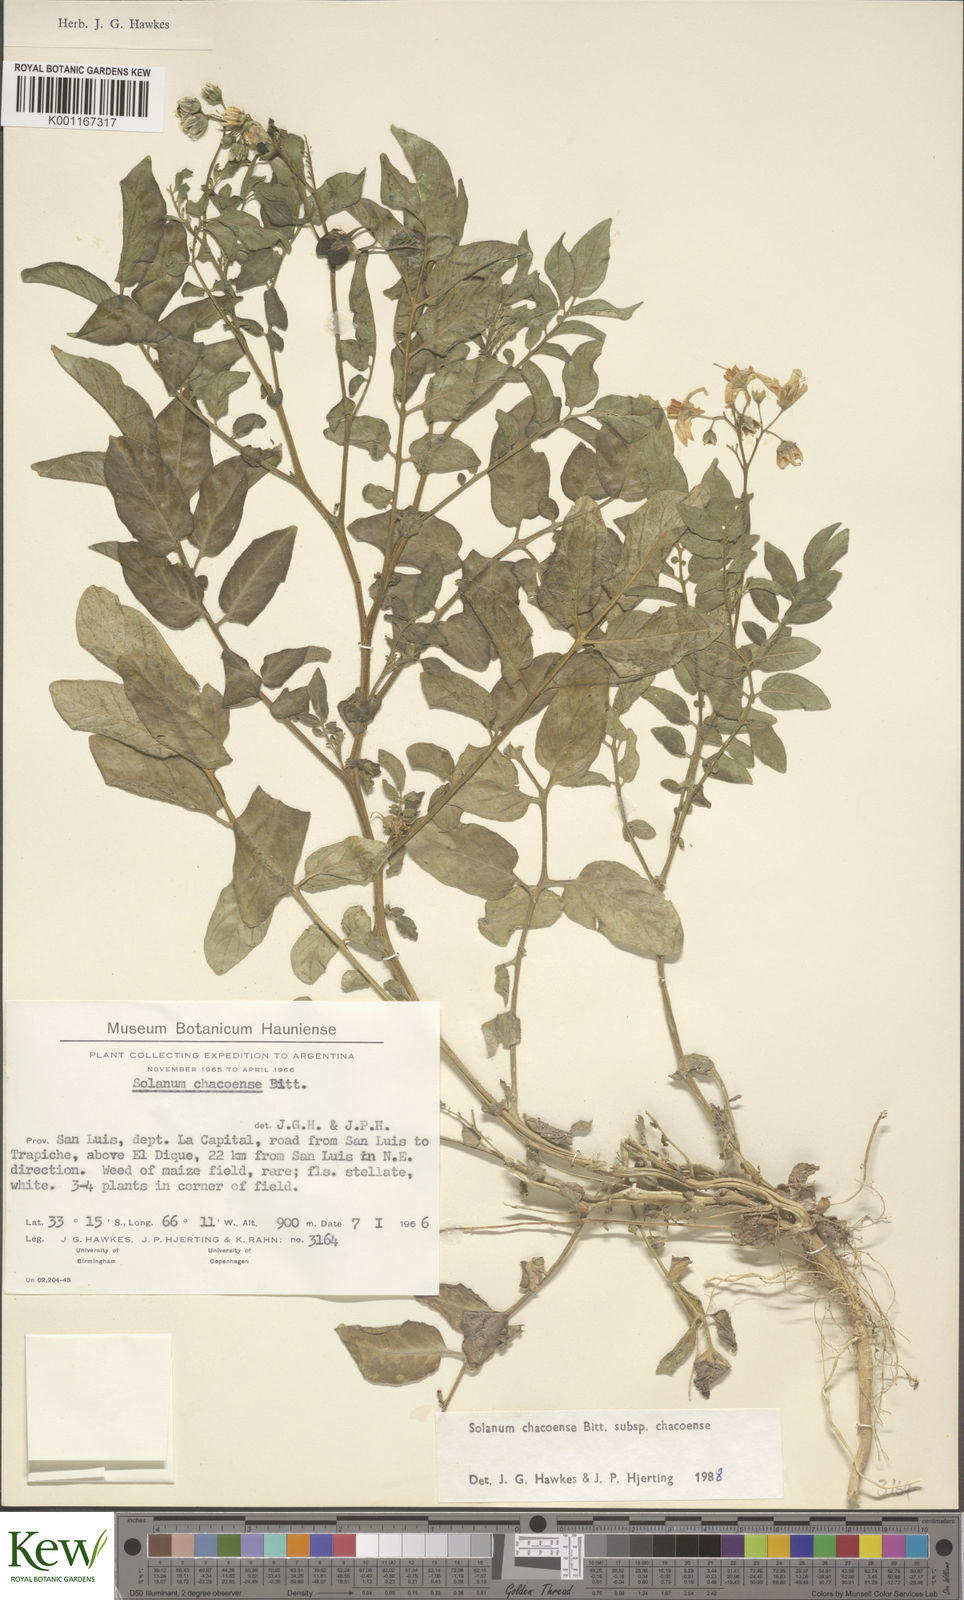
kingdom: Plantae
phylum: Tracheophyta
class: Magnoliopsida
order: Solanales
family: Solanaceae
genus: Solanum
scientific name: Solanum chacoense
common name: Chaco potato
